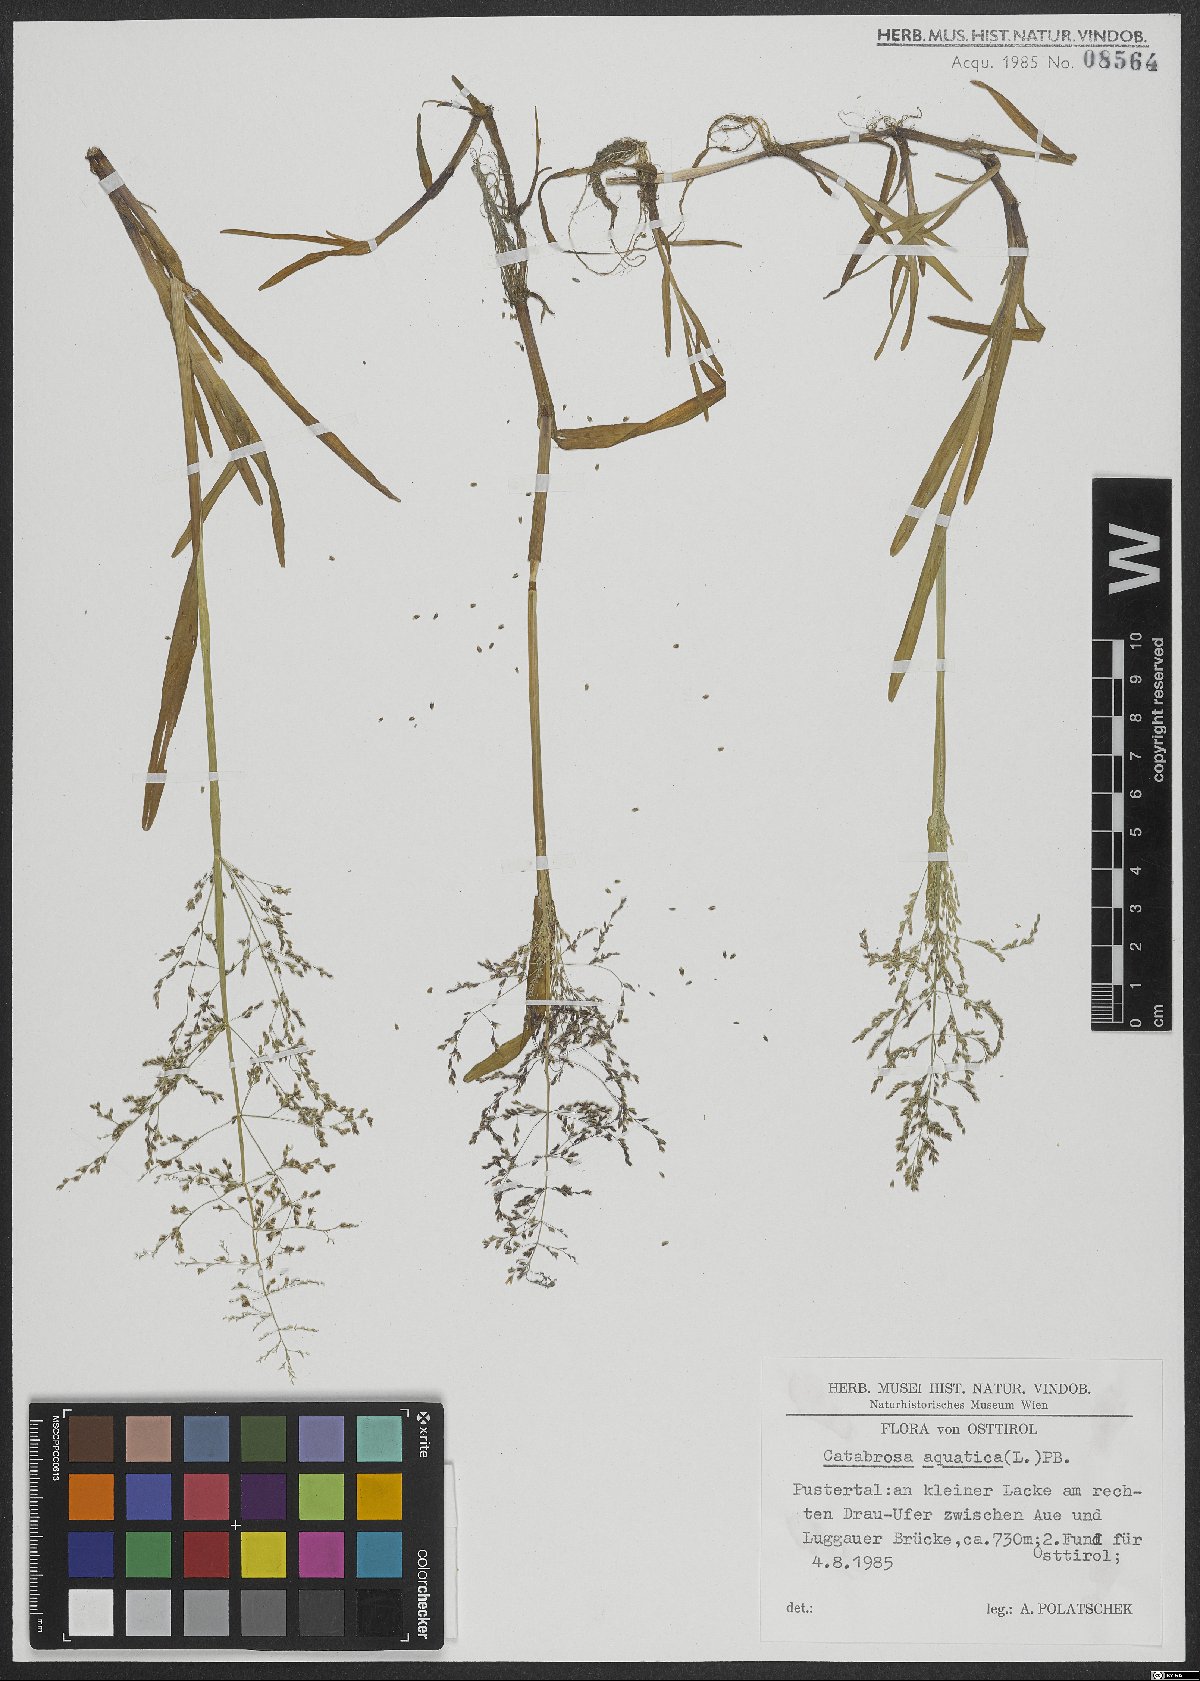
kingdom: Plantae
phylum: Tracheophyta
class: Liliopsida
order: Poales
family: Poaceae
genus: Catabrosa
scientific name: Catabrosa aquatica
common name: Whorl-grass
